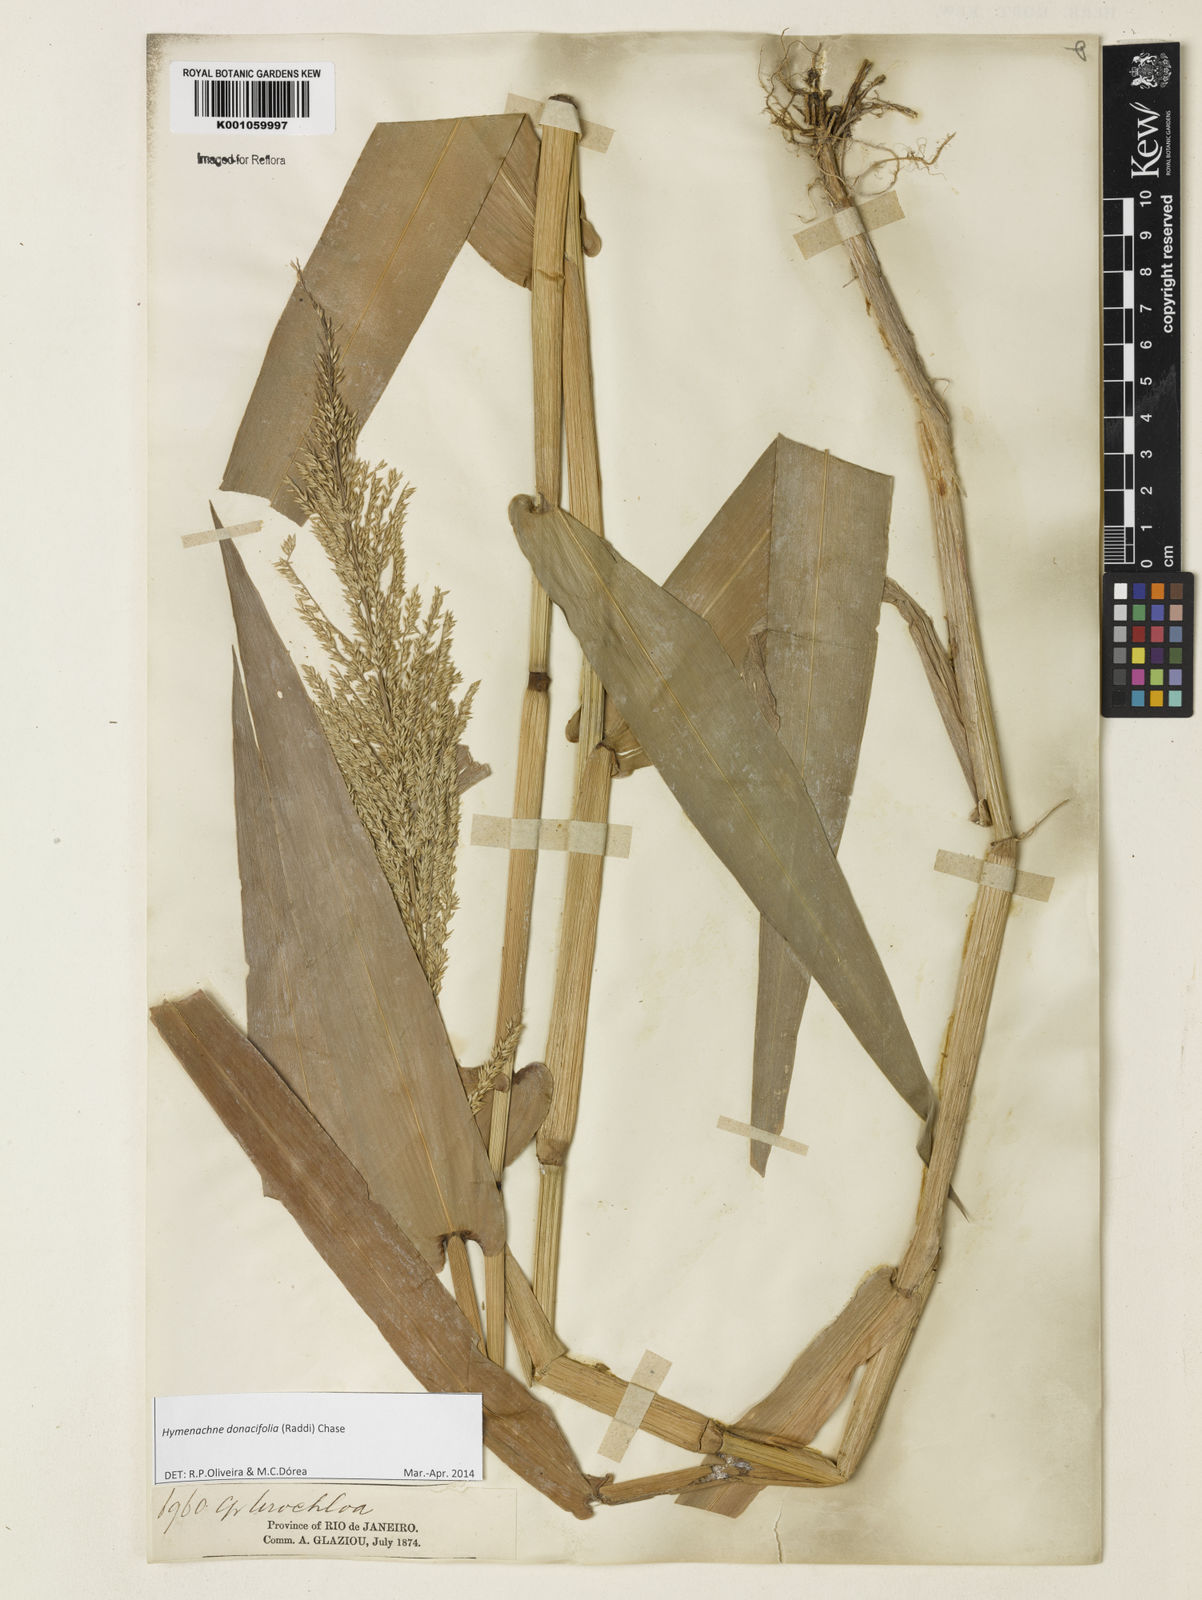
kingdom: Plantae
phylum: Tracheophyta
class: Liliopsida
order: Poales
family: Poaceae
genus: Hymenachne
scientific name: Hymenachne donacifolia
